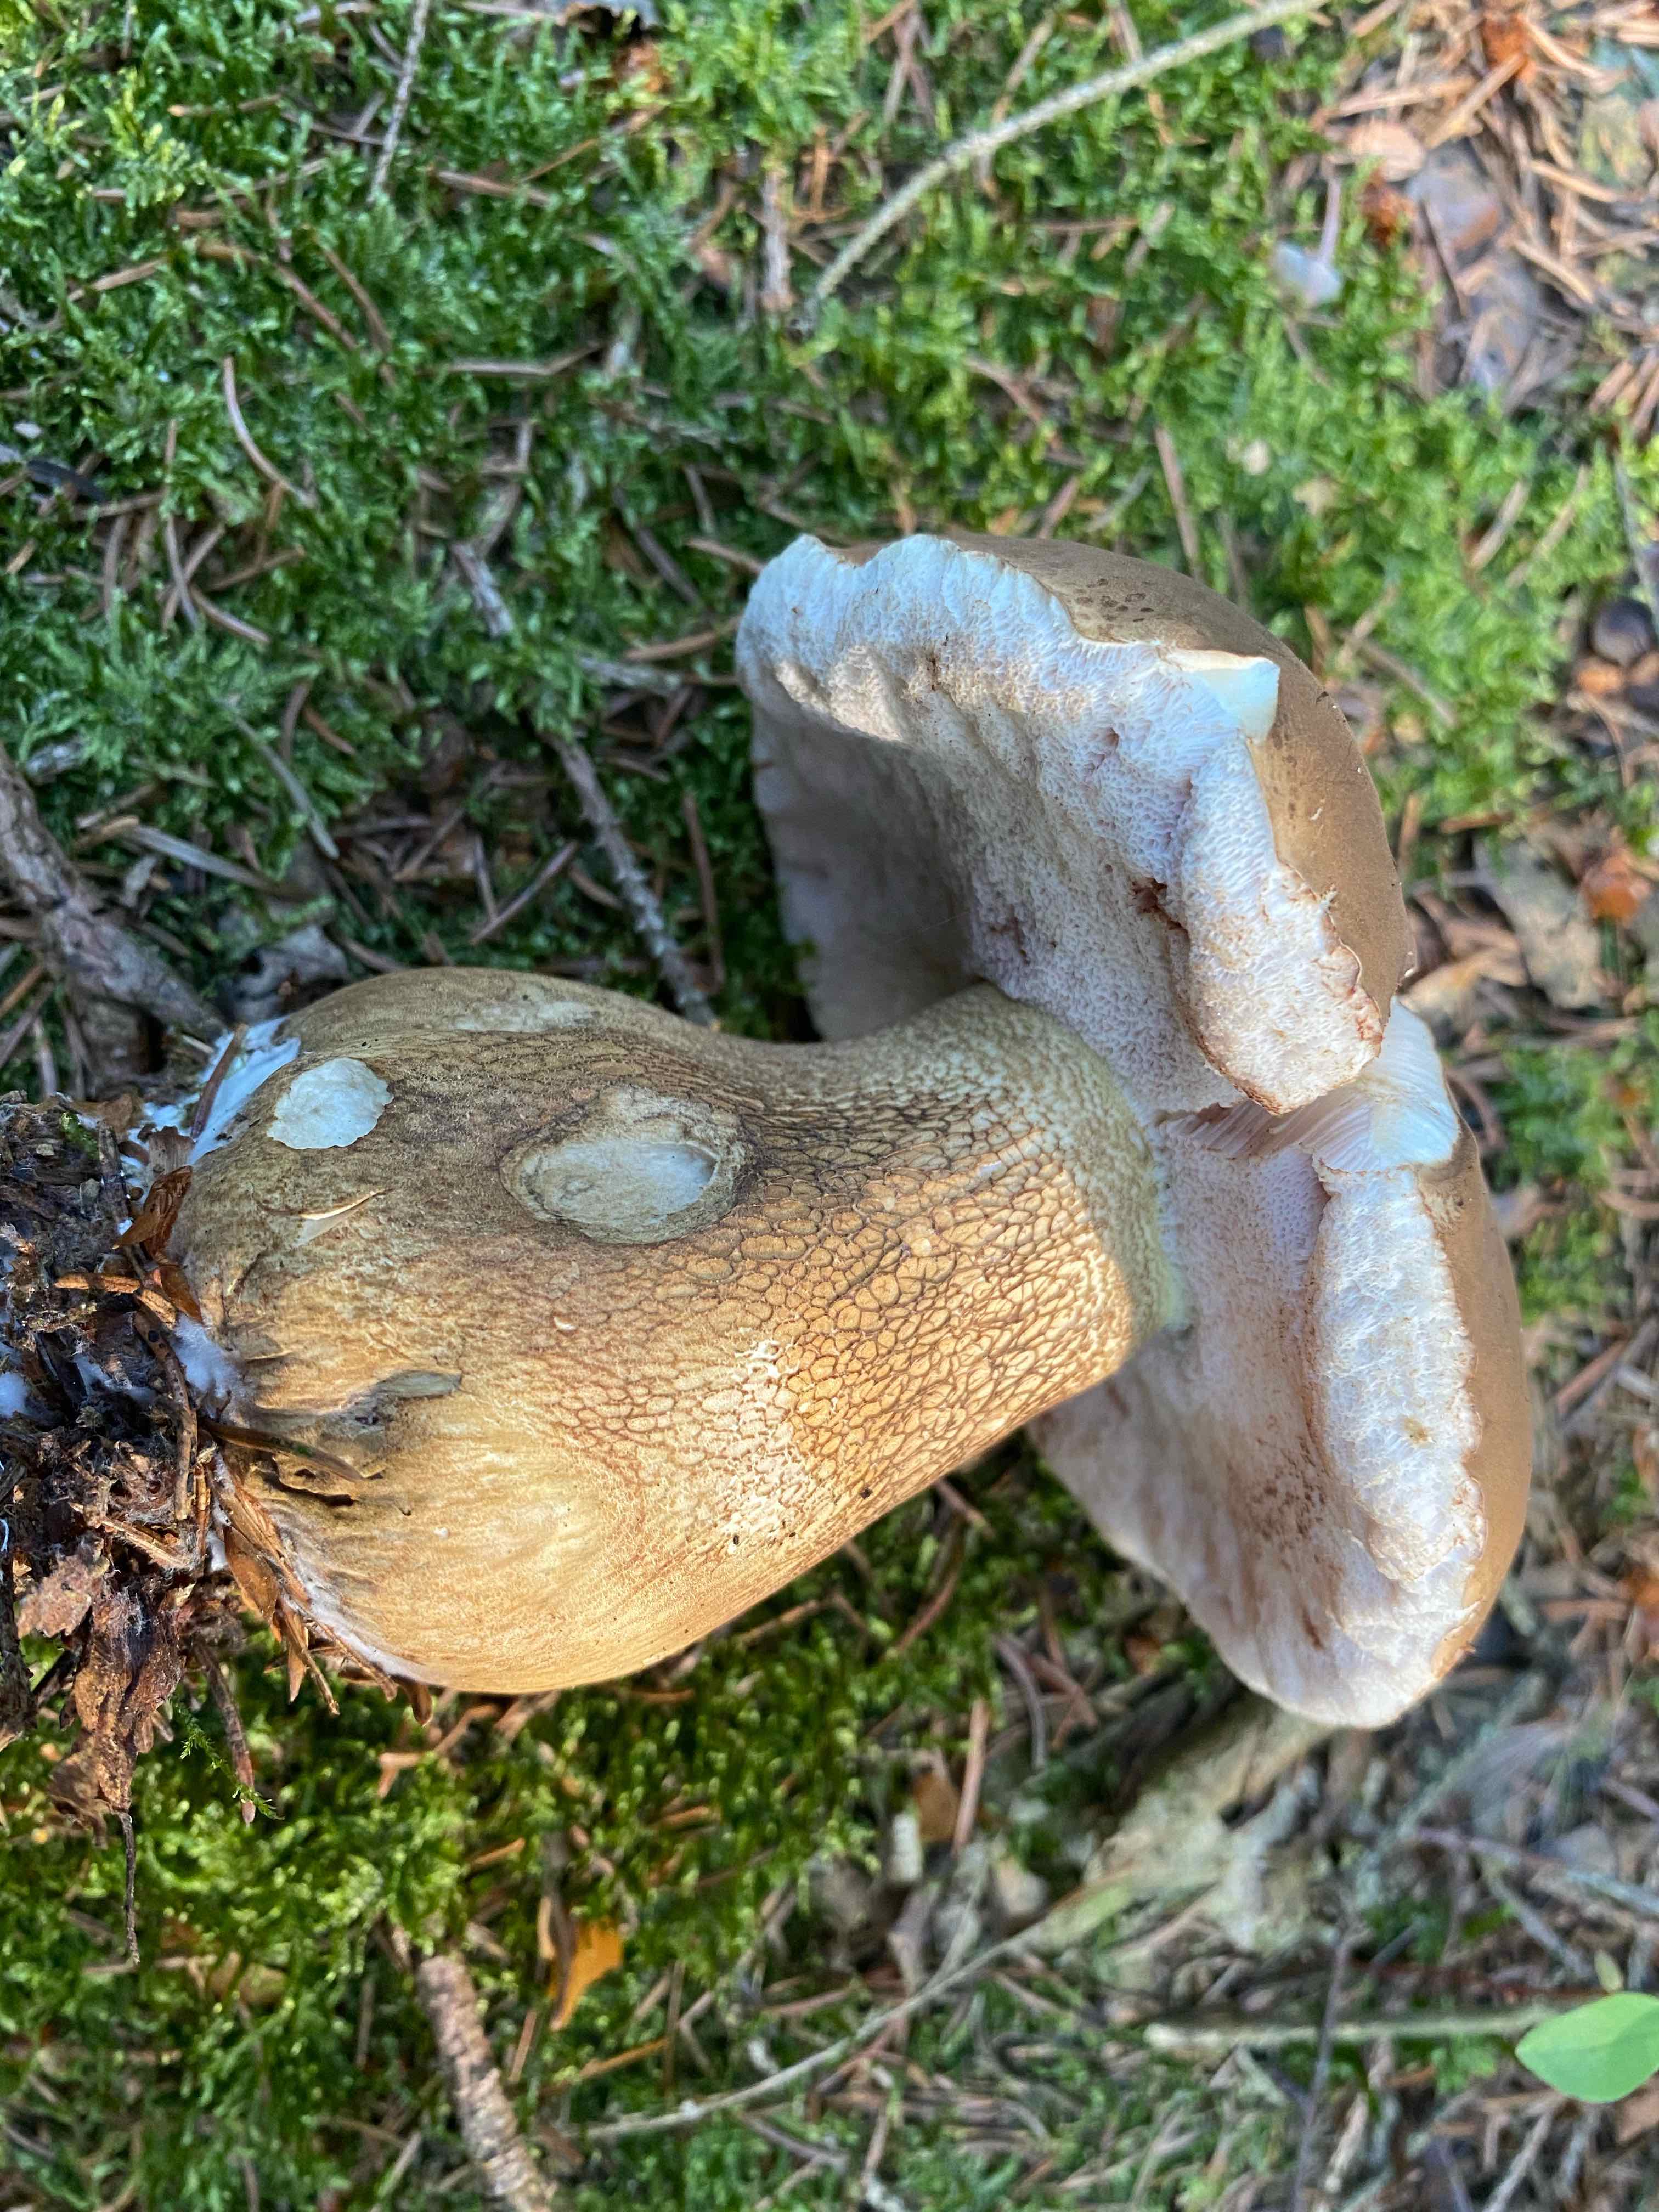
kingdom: Fungi
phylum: Basidiomycota
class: Agaricomycetes
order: Boletales
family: Boletaceae
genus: Tylopilus
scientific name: Tylopilus felleus
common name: galderørhat
